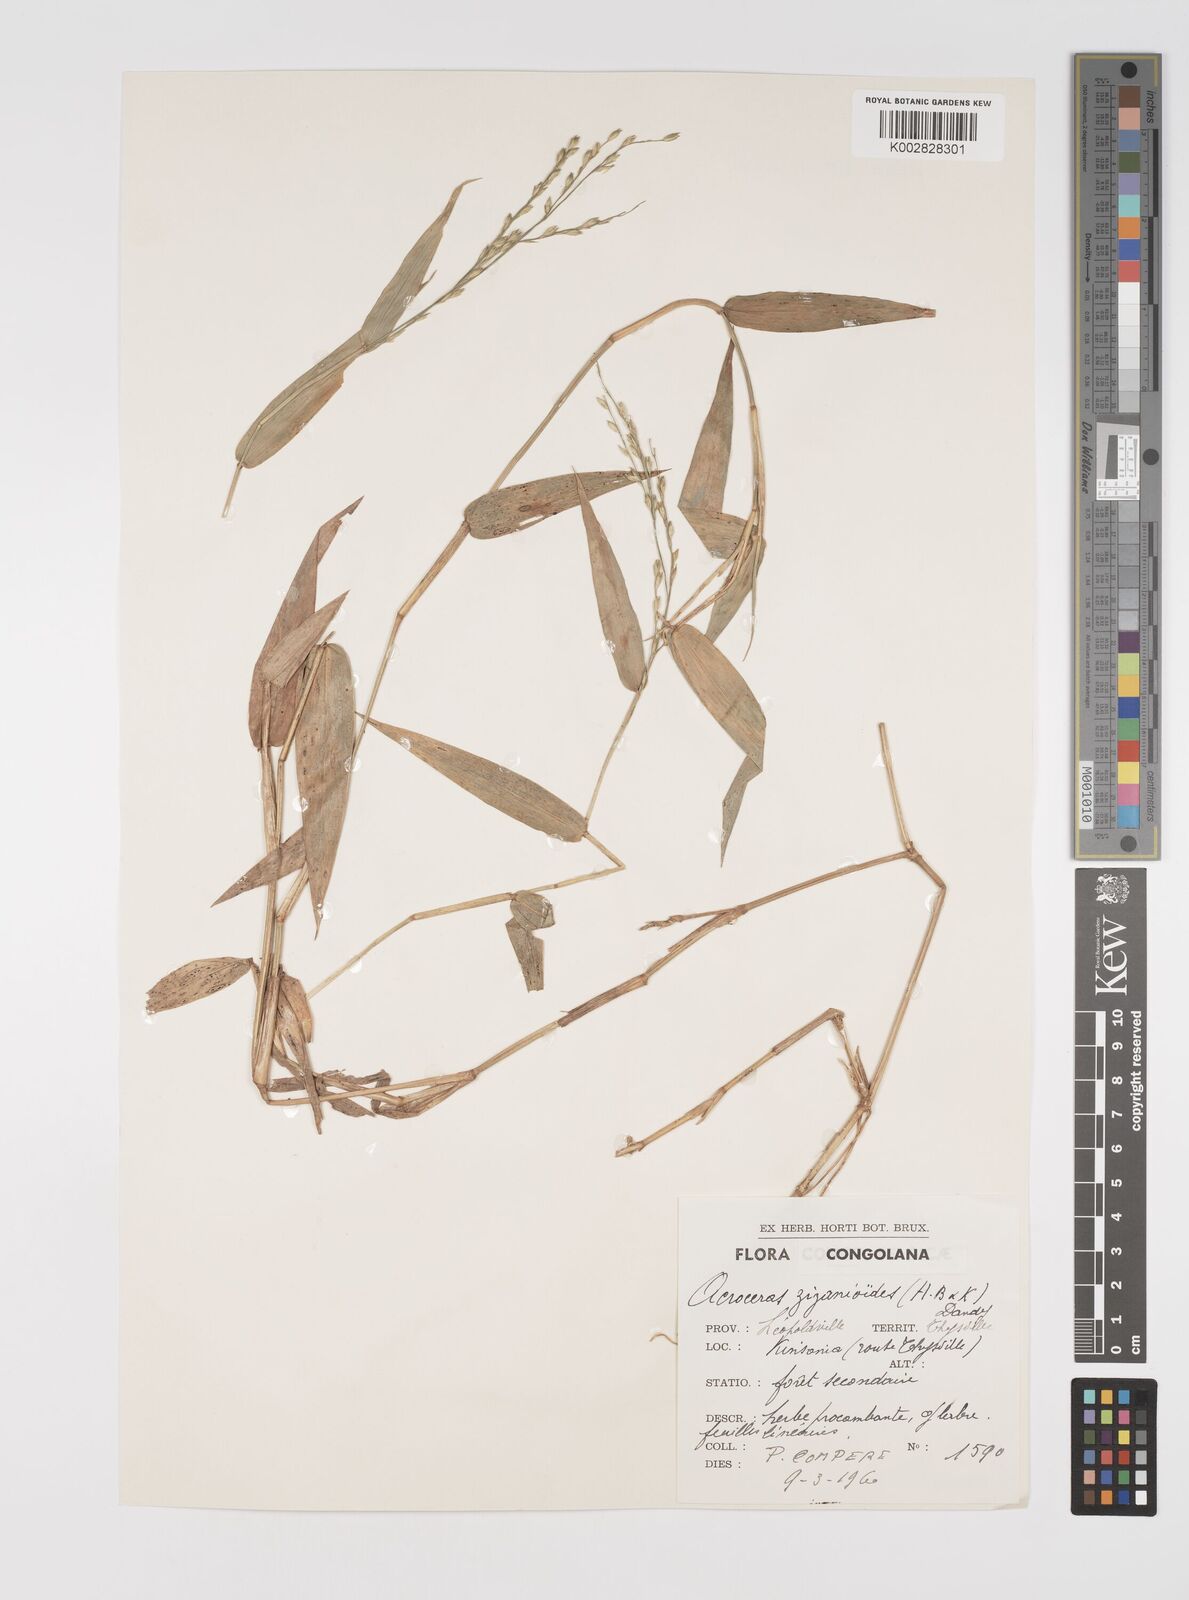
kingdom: Plantae
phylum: Tracheophyta
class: Liliopsida
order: Poales
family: Poaceae
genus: Acroceras
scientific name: Acroceras zizanioides
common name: Oat grass
